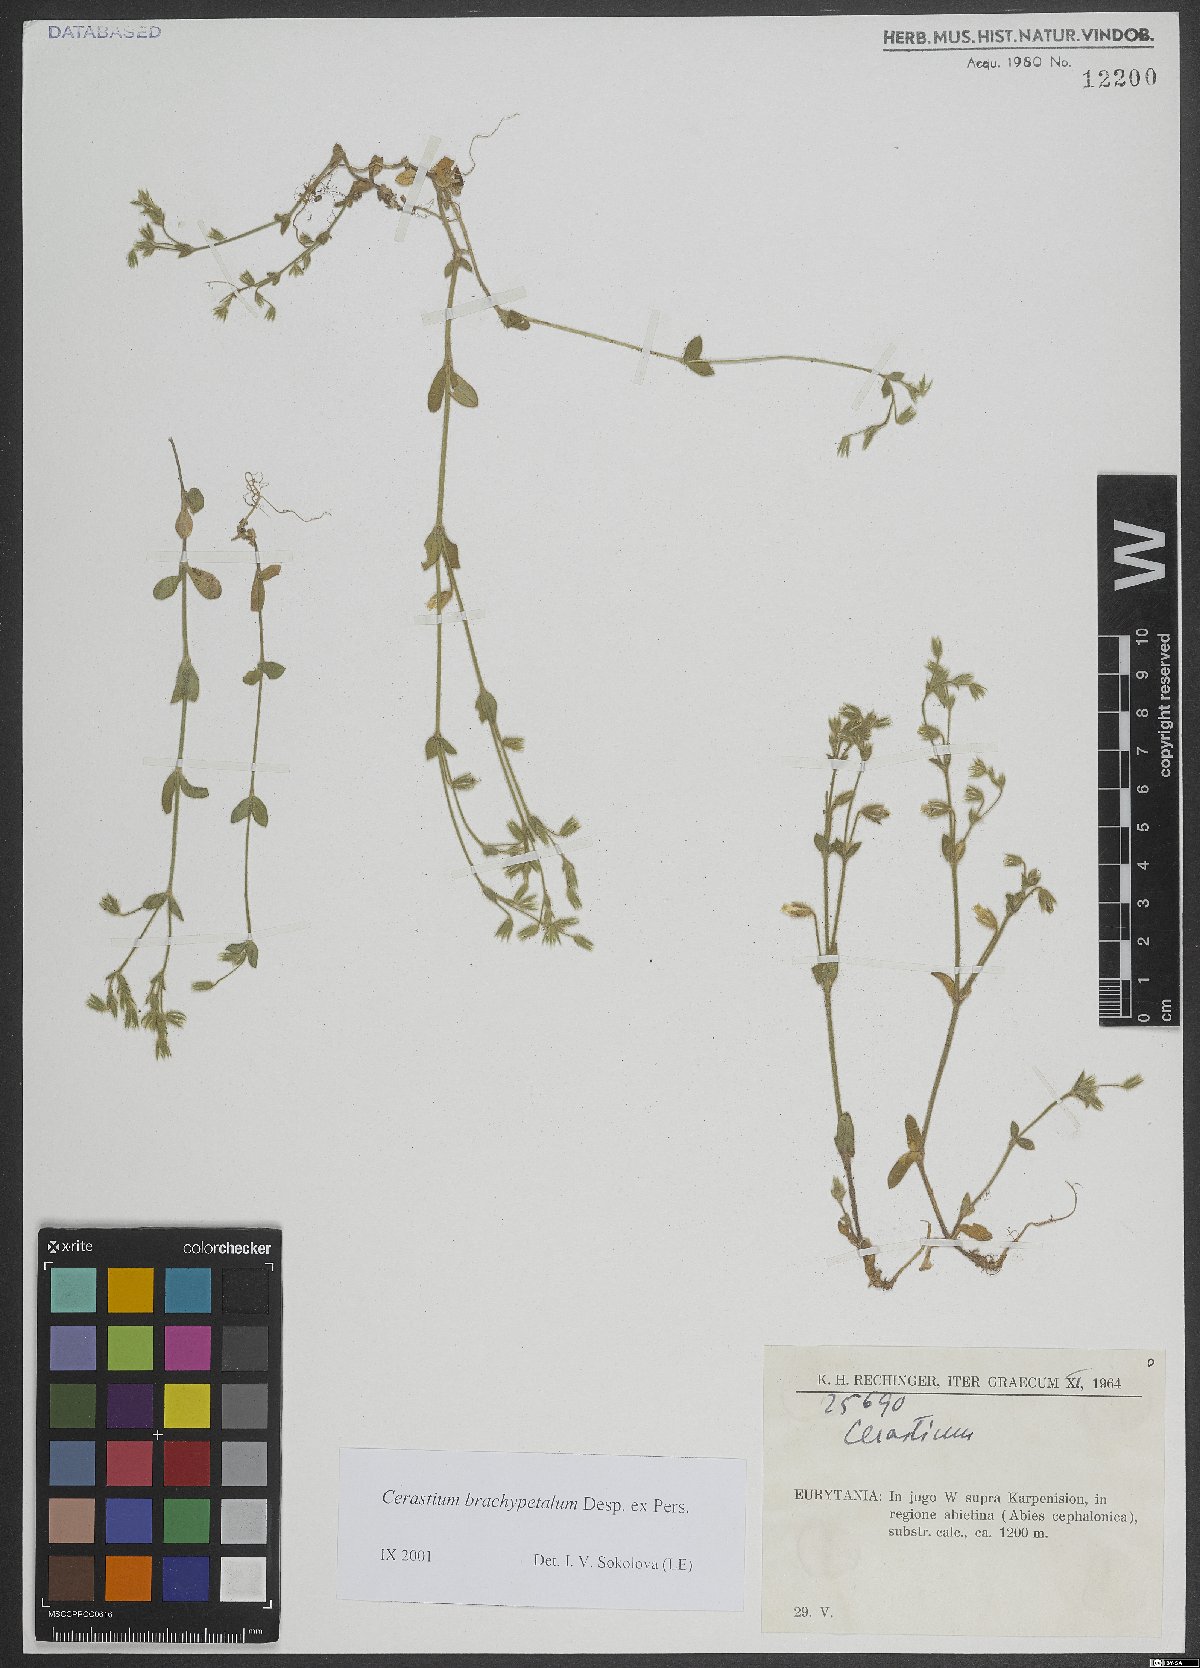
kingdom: Plantae
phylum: Tracheophyta
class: Magnoliopsida
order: Caryophyllales
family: Caryophyllaceae
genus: Cerastium
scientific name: Cerastium brachypetalum
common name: Grey mouse-ear
